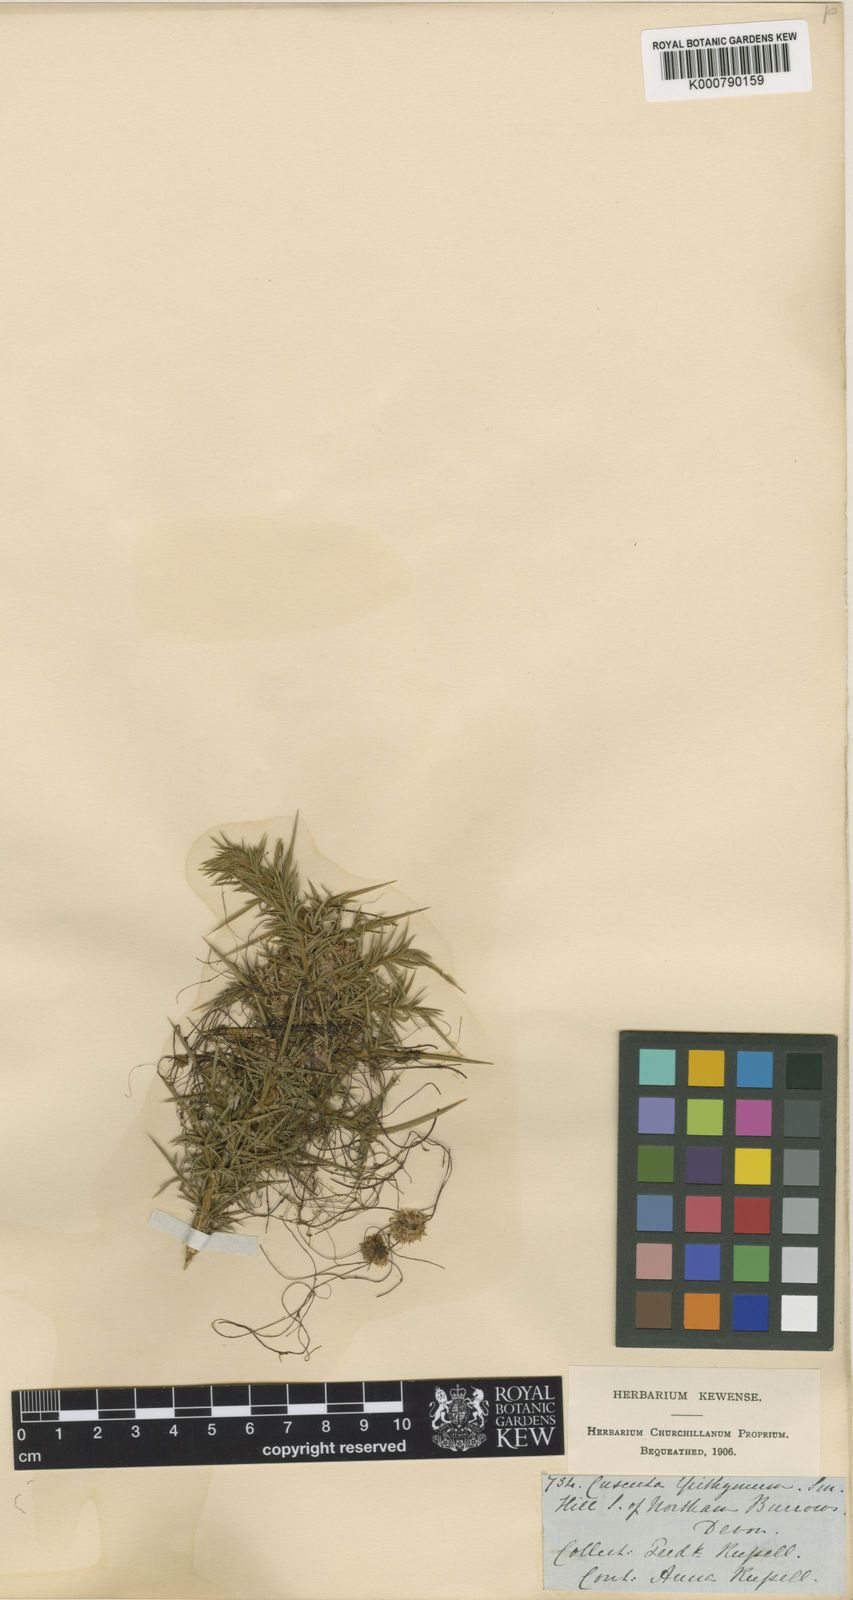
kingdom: Plantae
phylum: Tracheophyta
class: Magnoliopsida
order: Solanales
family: Convolvulaceae
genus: Cuscuta
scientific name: Cuscuta epithymum
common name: Clover dodder
